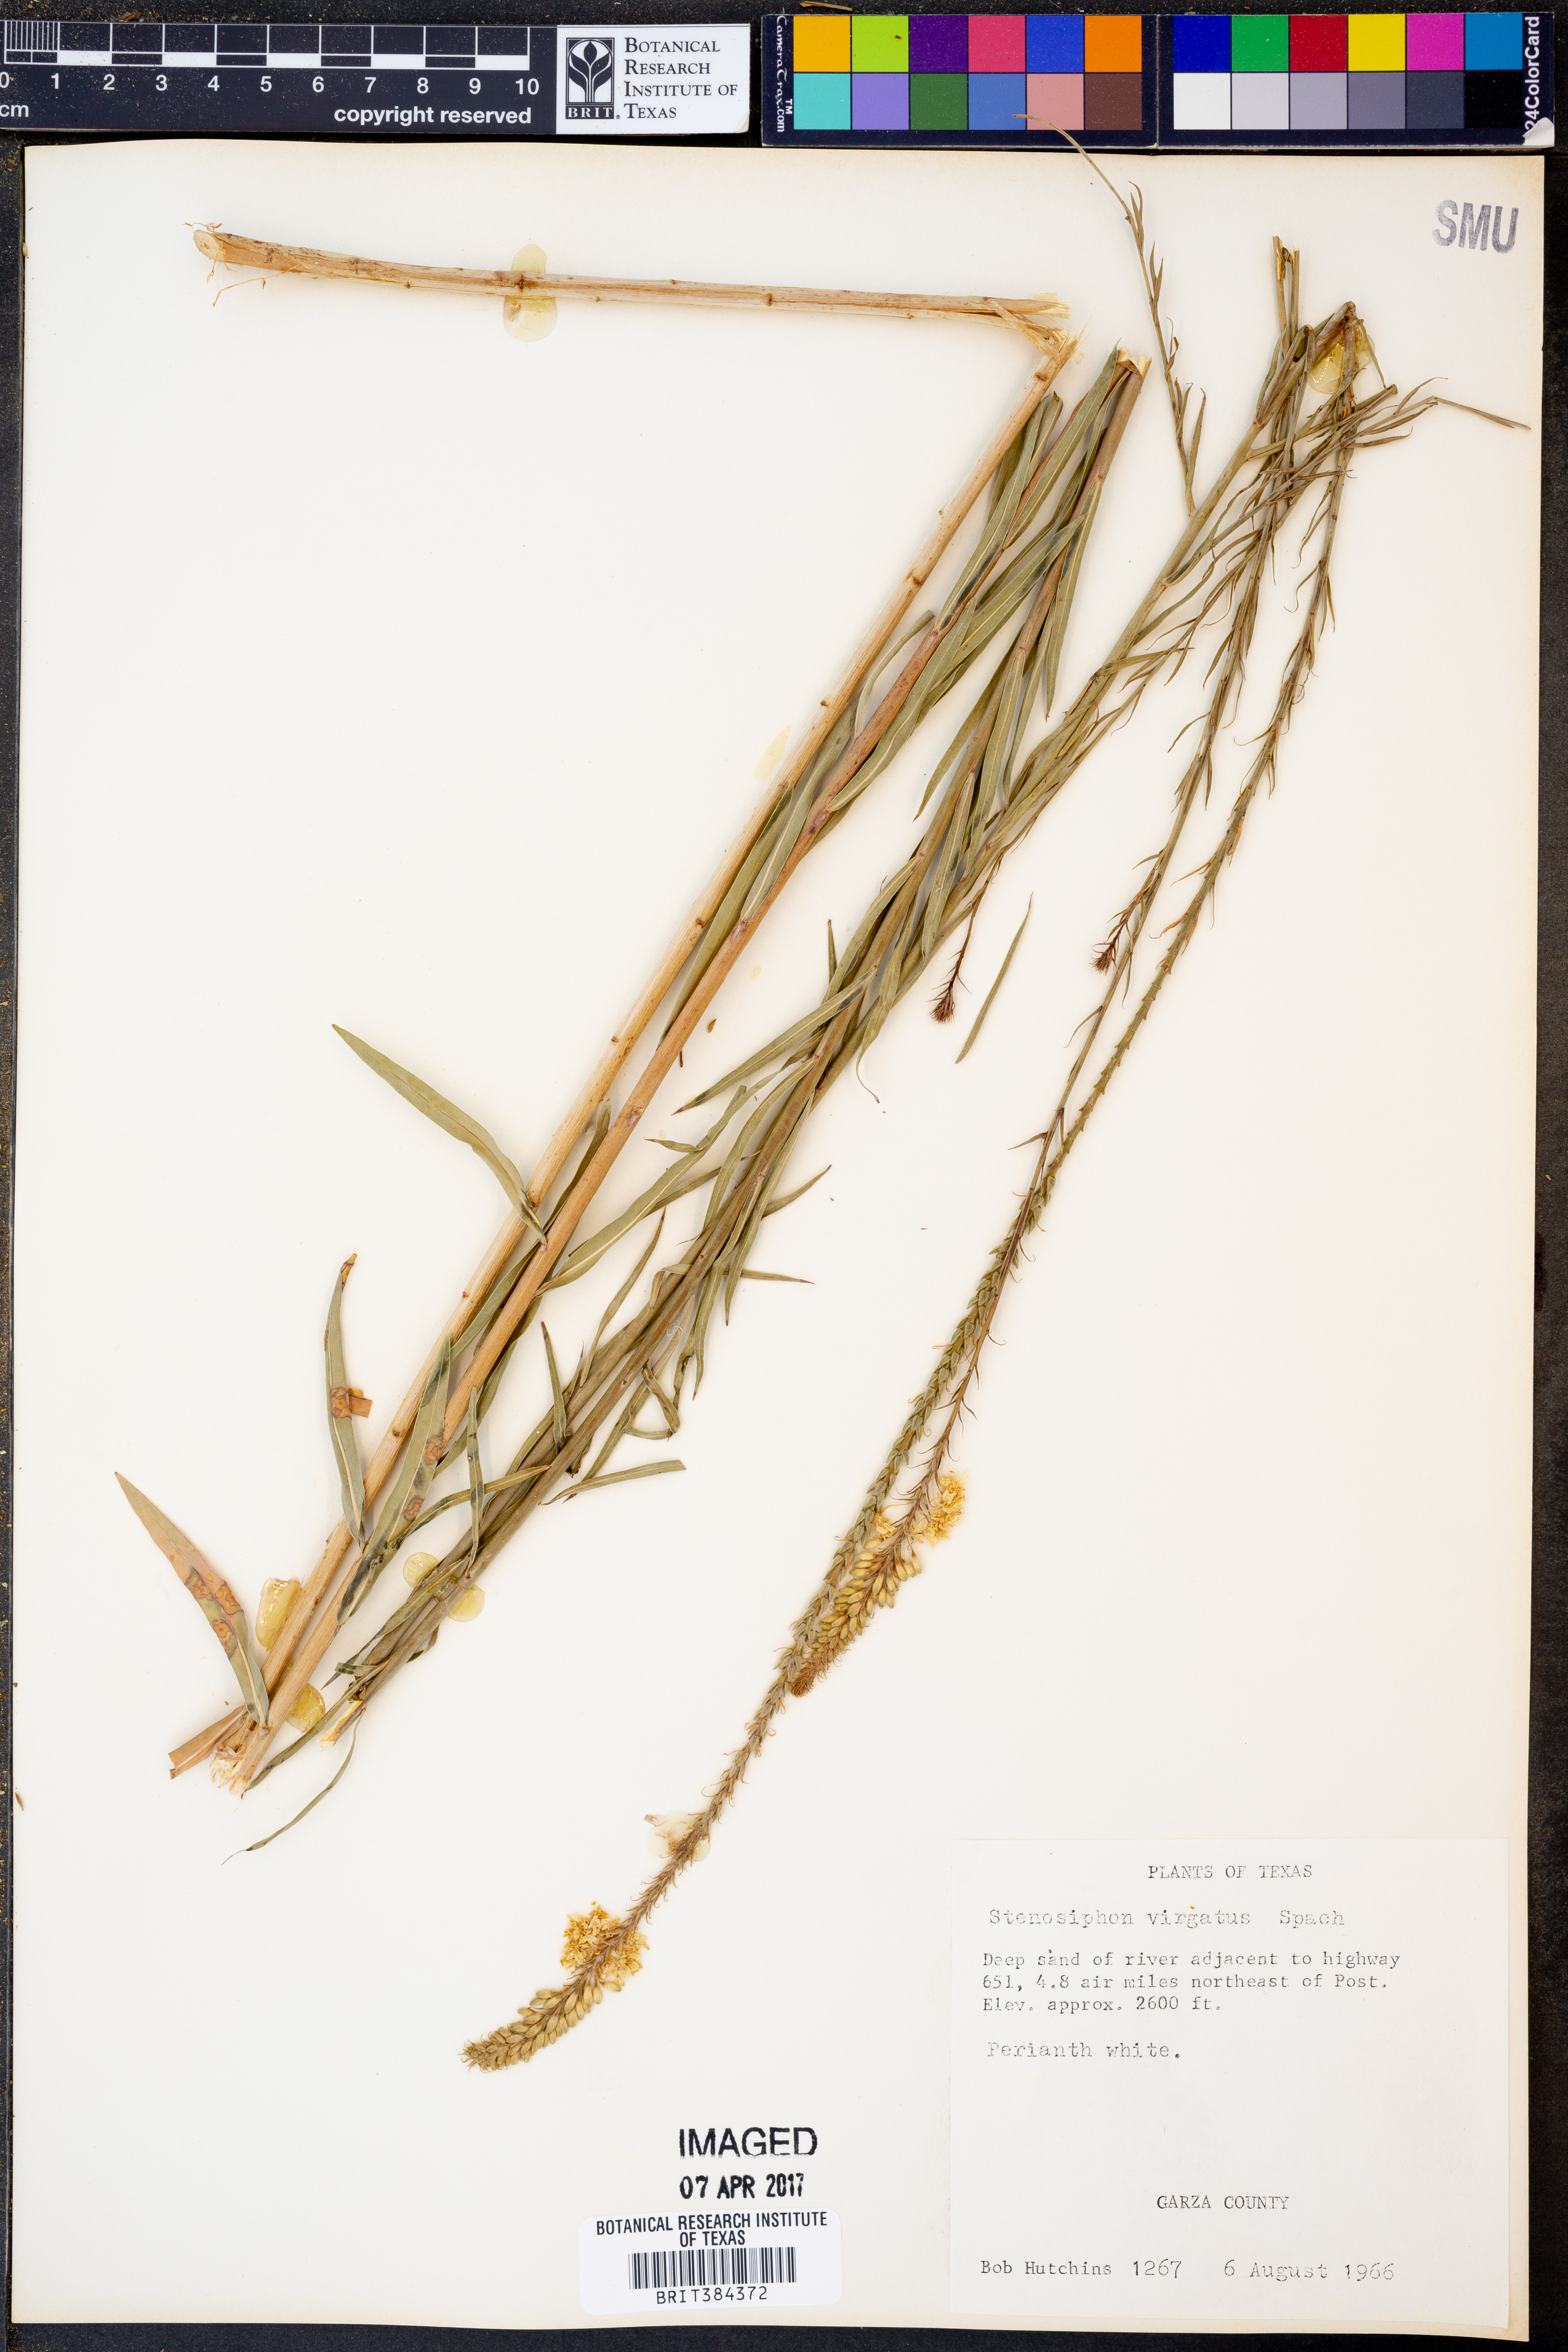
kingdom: Plantae
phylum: Tracheophyta
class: Magnoliopsida
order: Myrtales
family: Onagraceae
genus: Oenothera
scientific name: Oenothera glaucifolia
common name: False gaura
